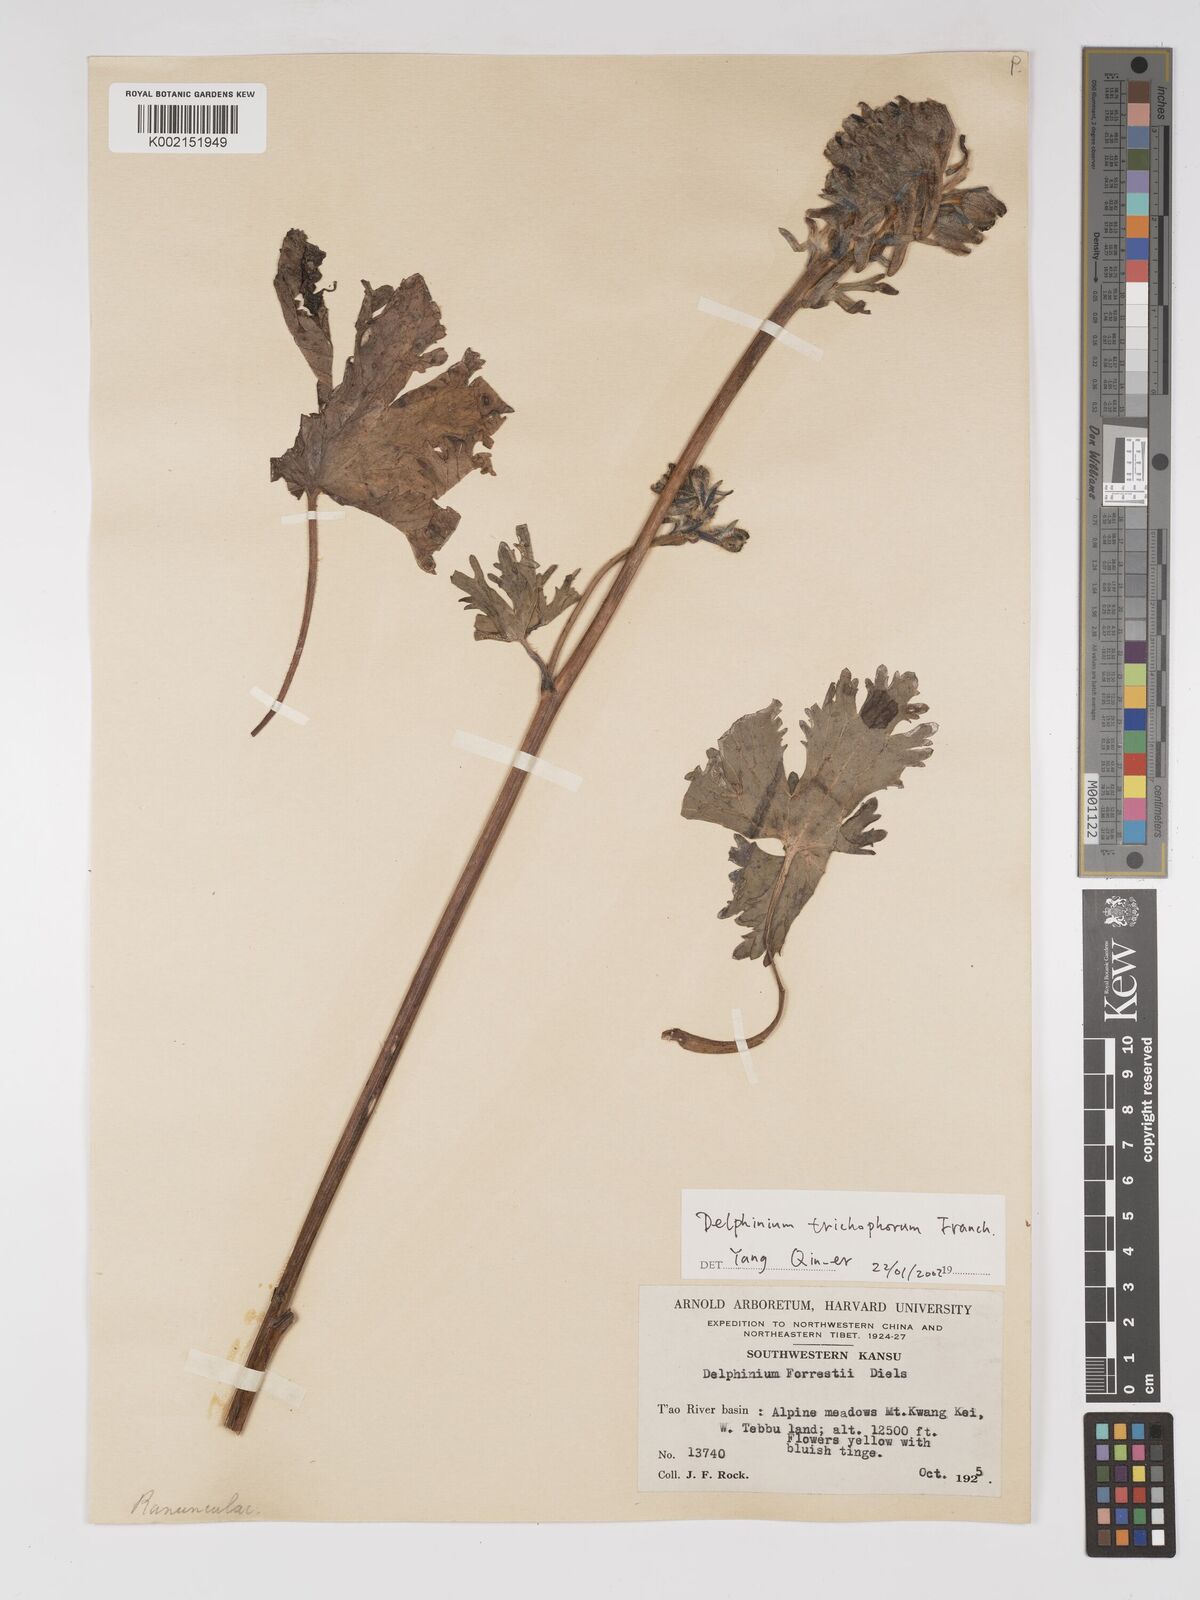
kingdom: Plantae
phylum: Tracheophyta
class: Magnoliopsida
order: Ranunculales
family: Ranunculaceae
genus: Delphinium
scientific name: Delphinium trichophorum
